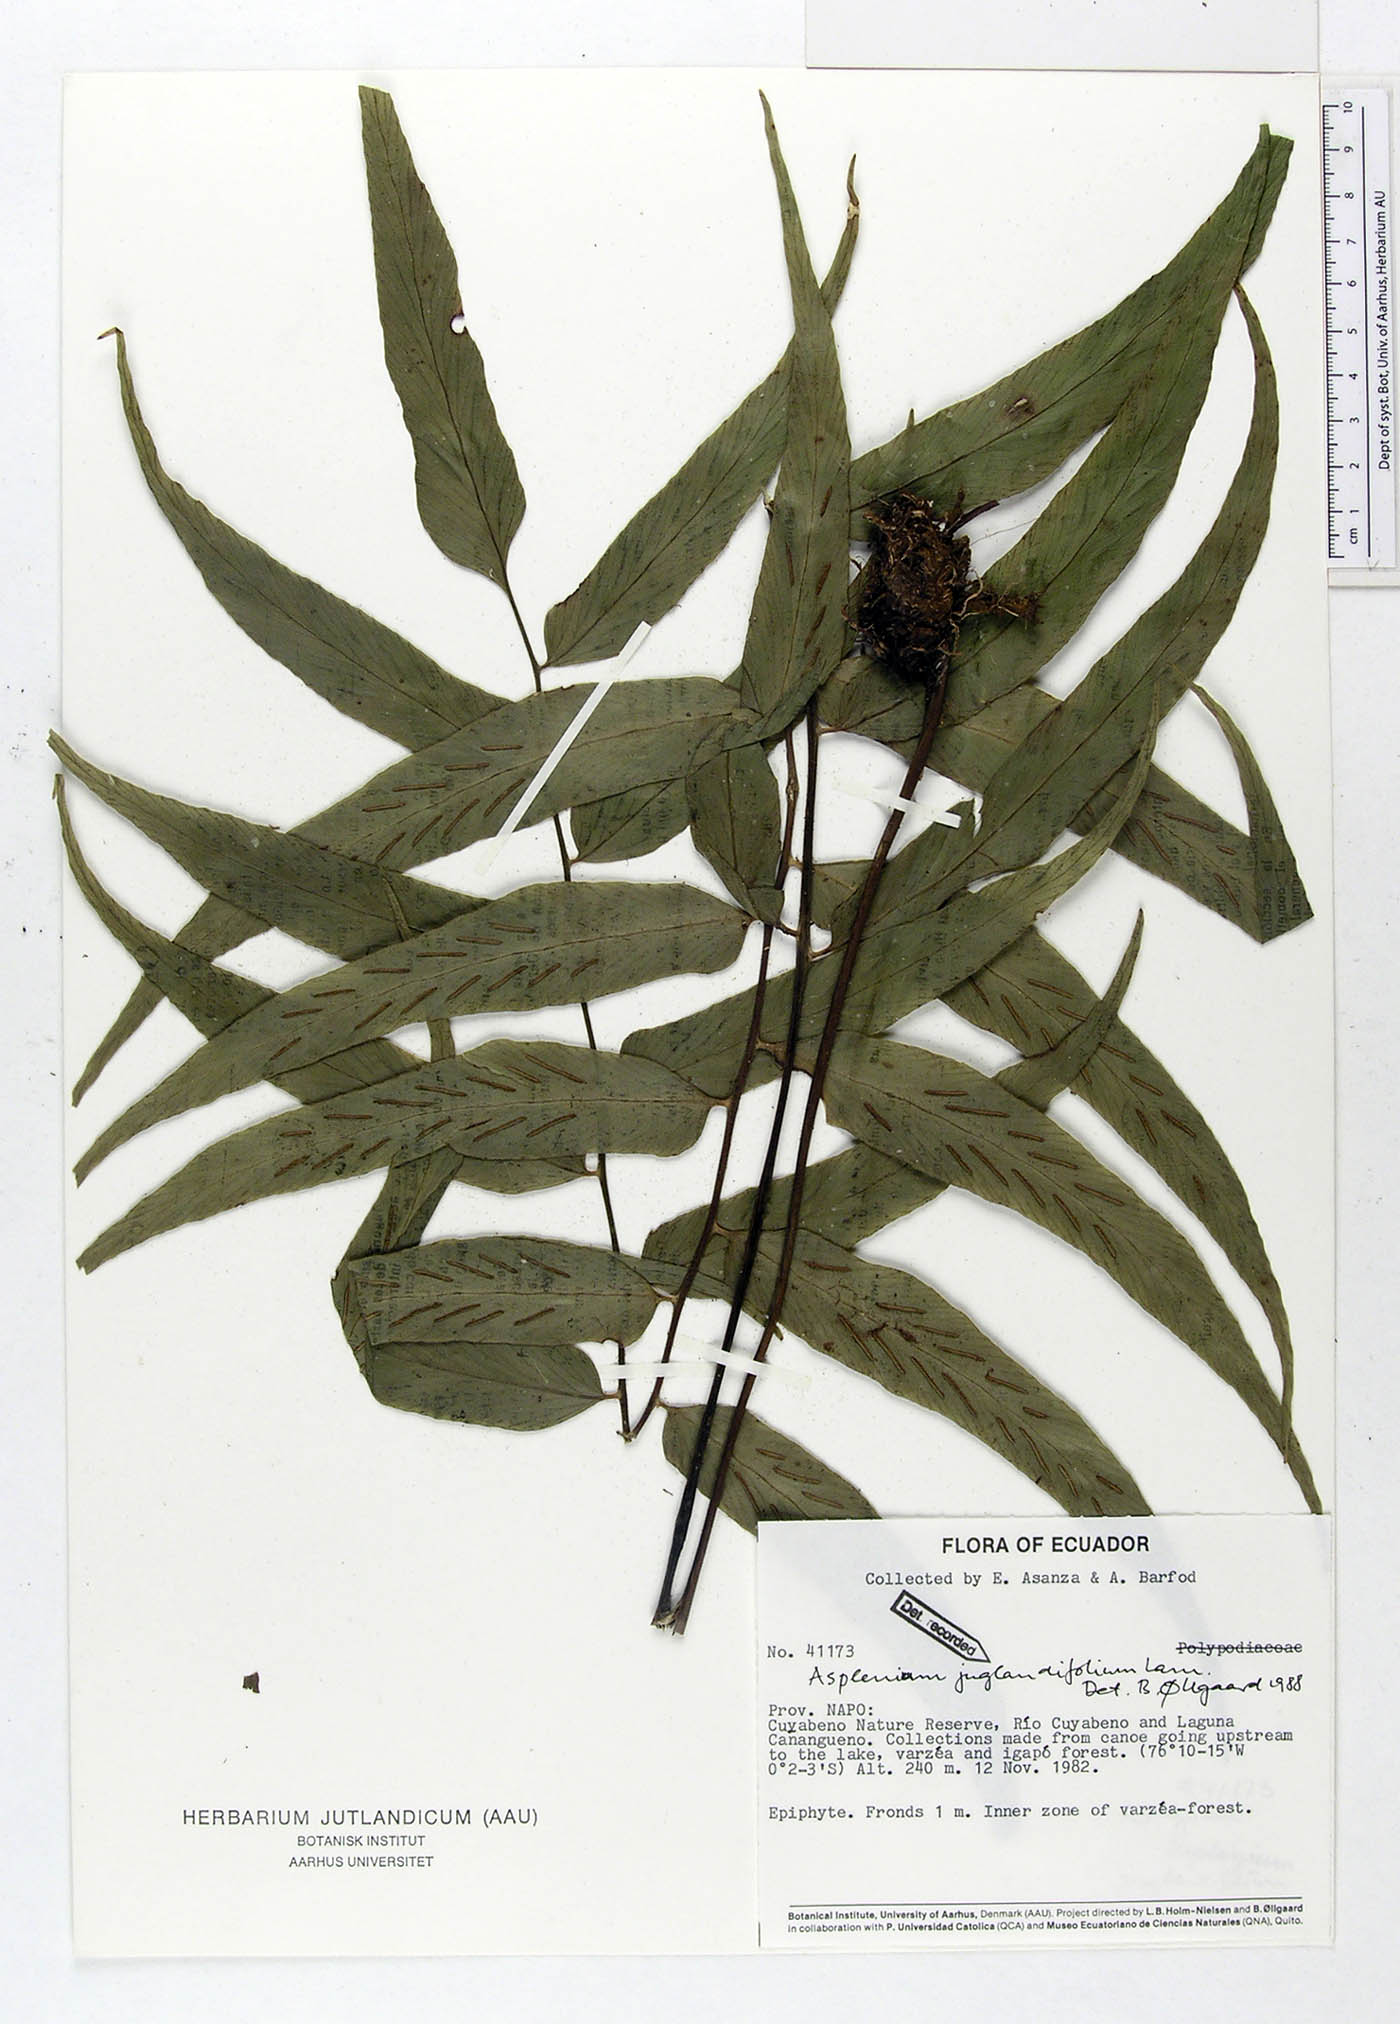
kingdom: Plantae
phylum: Tracheophyta
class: Polypodiopsida
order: Polypodiales
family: Aspleniaceae
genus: Asplenium
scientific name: Asplenium juglandifolium
